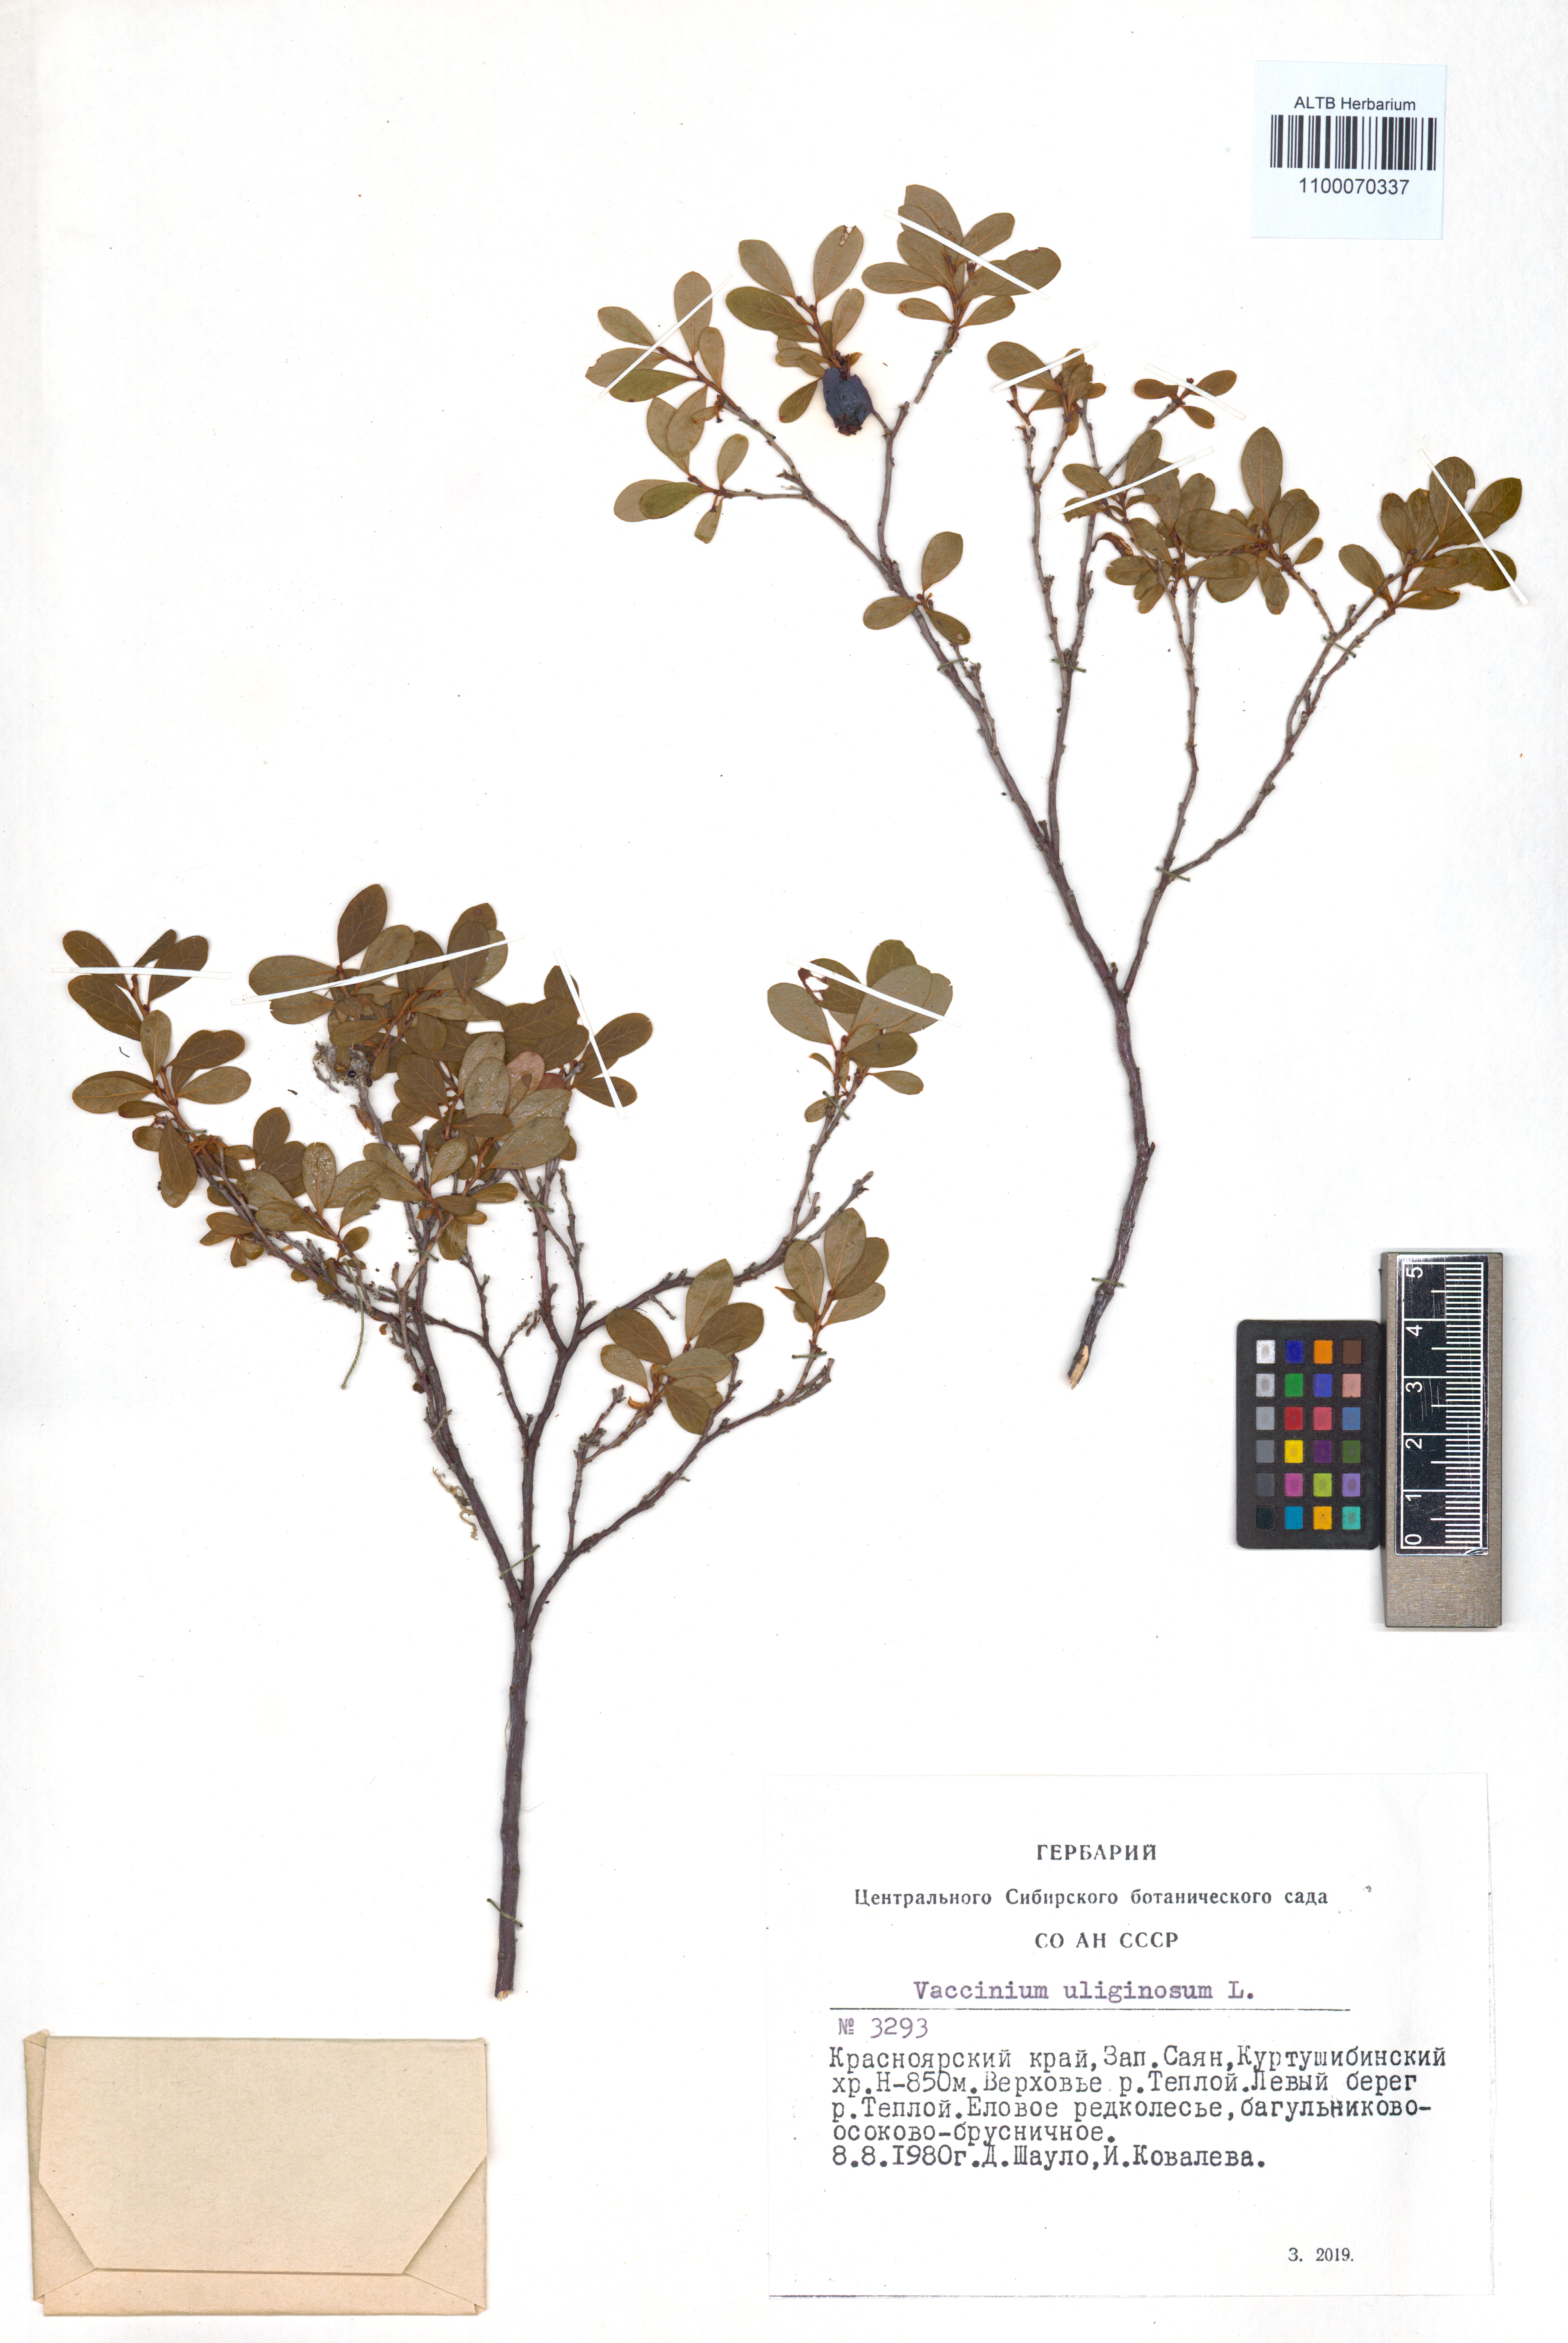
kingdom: Plantae
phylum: Tracheophyta
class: Magnoliopsida
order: Ericales
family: Ericaceae
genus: Vaccinium
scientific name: Vaccinium uliginosum
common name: Bog bilberry
